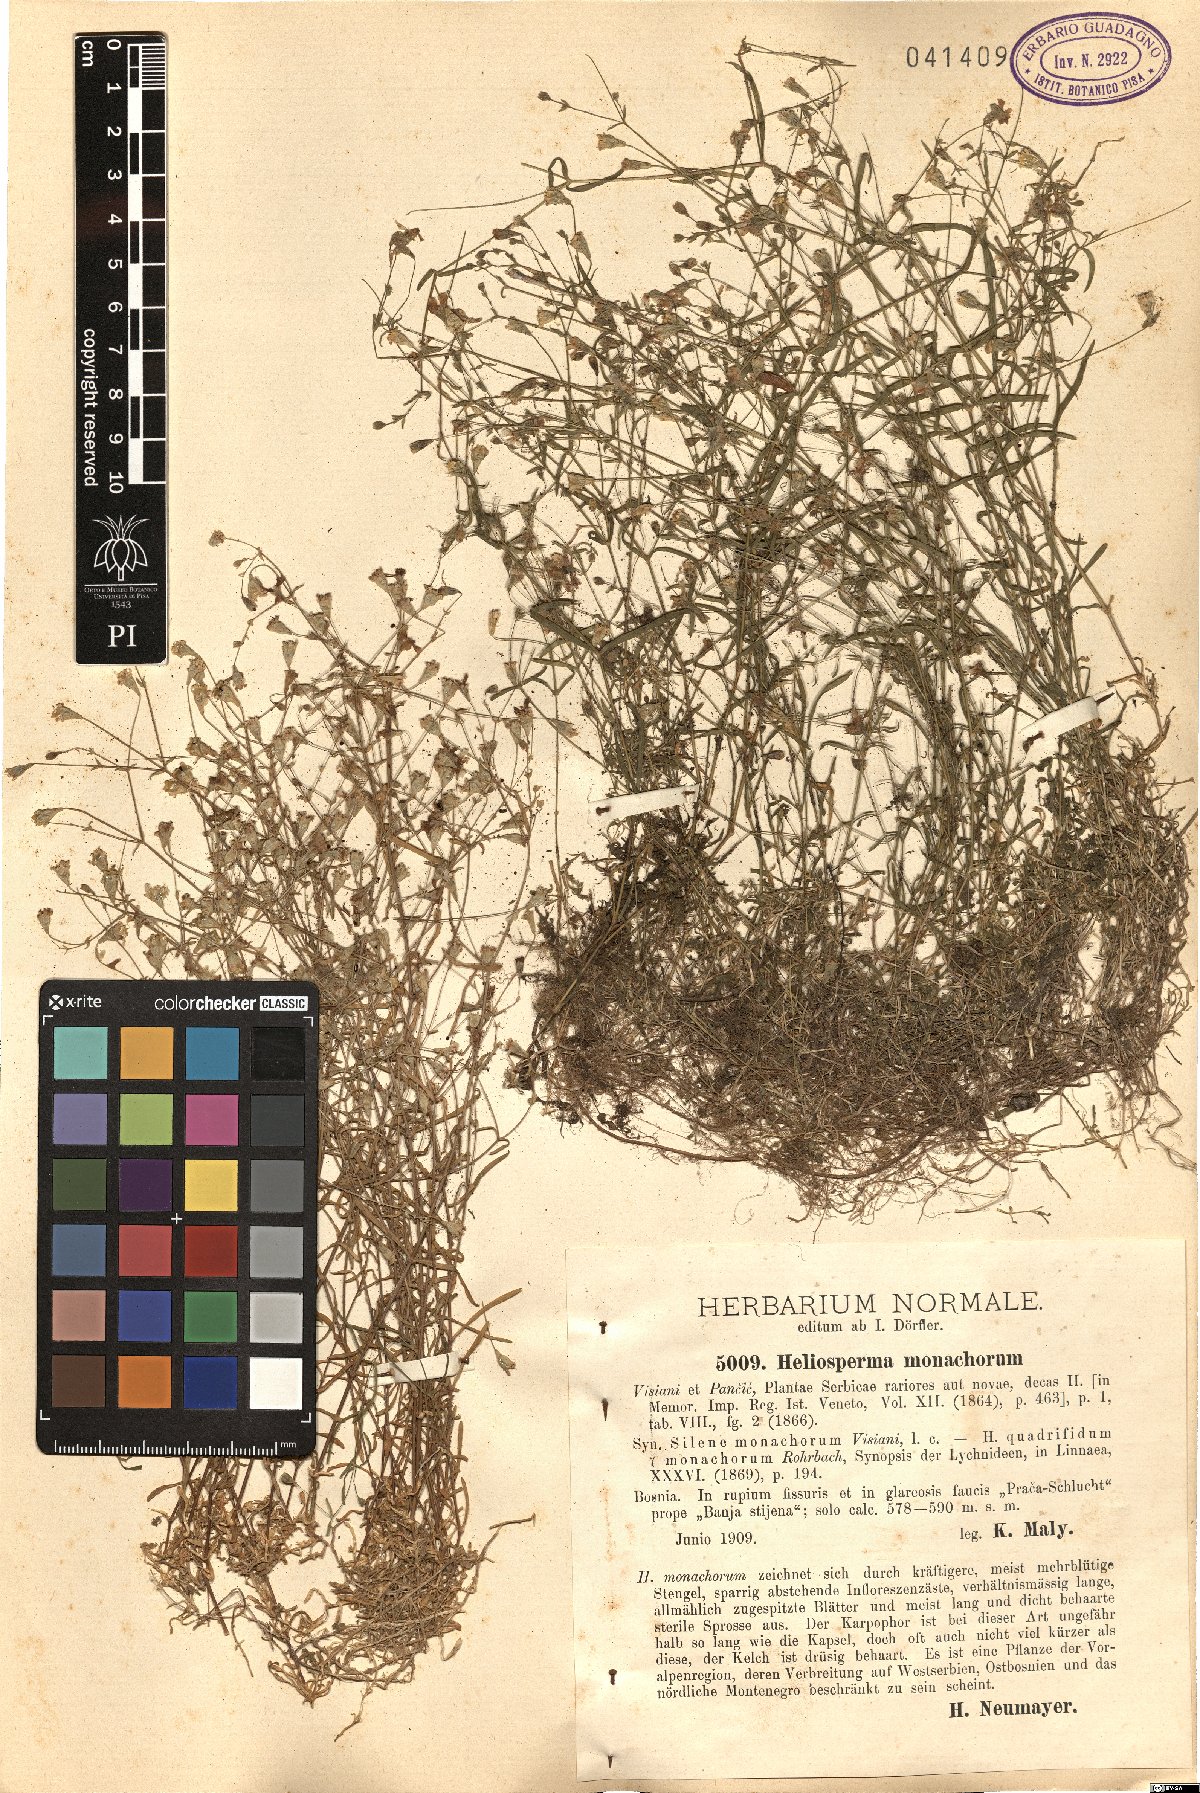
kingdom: Plantae
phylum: Tracheophyta
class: Magnoliopsida
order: Caryophyllales
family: Caryophyllaceae
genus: Heliosperma
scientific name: Heliosperma pusillum
